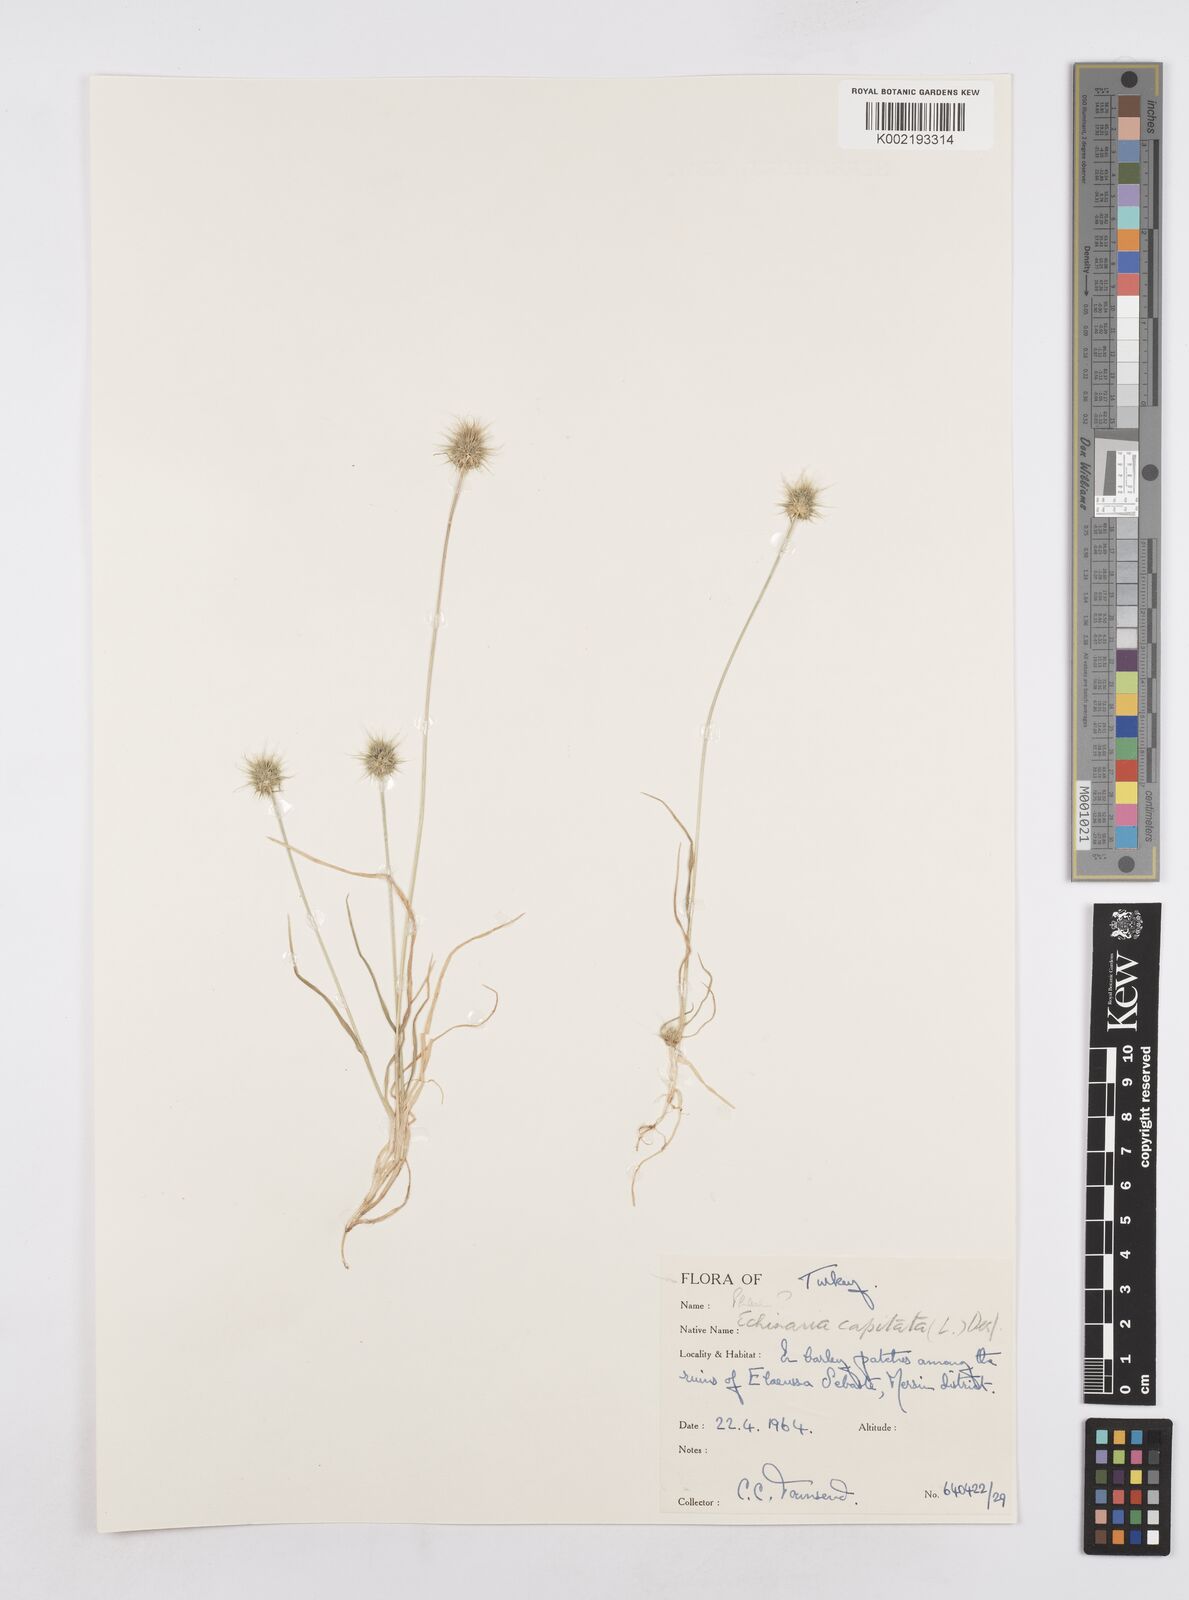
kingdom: Plantae
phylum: Tracheophyta
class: Liliopsida
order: Poales
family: Poaceae
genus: Echinaria
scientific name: Echinaria capitata
